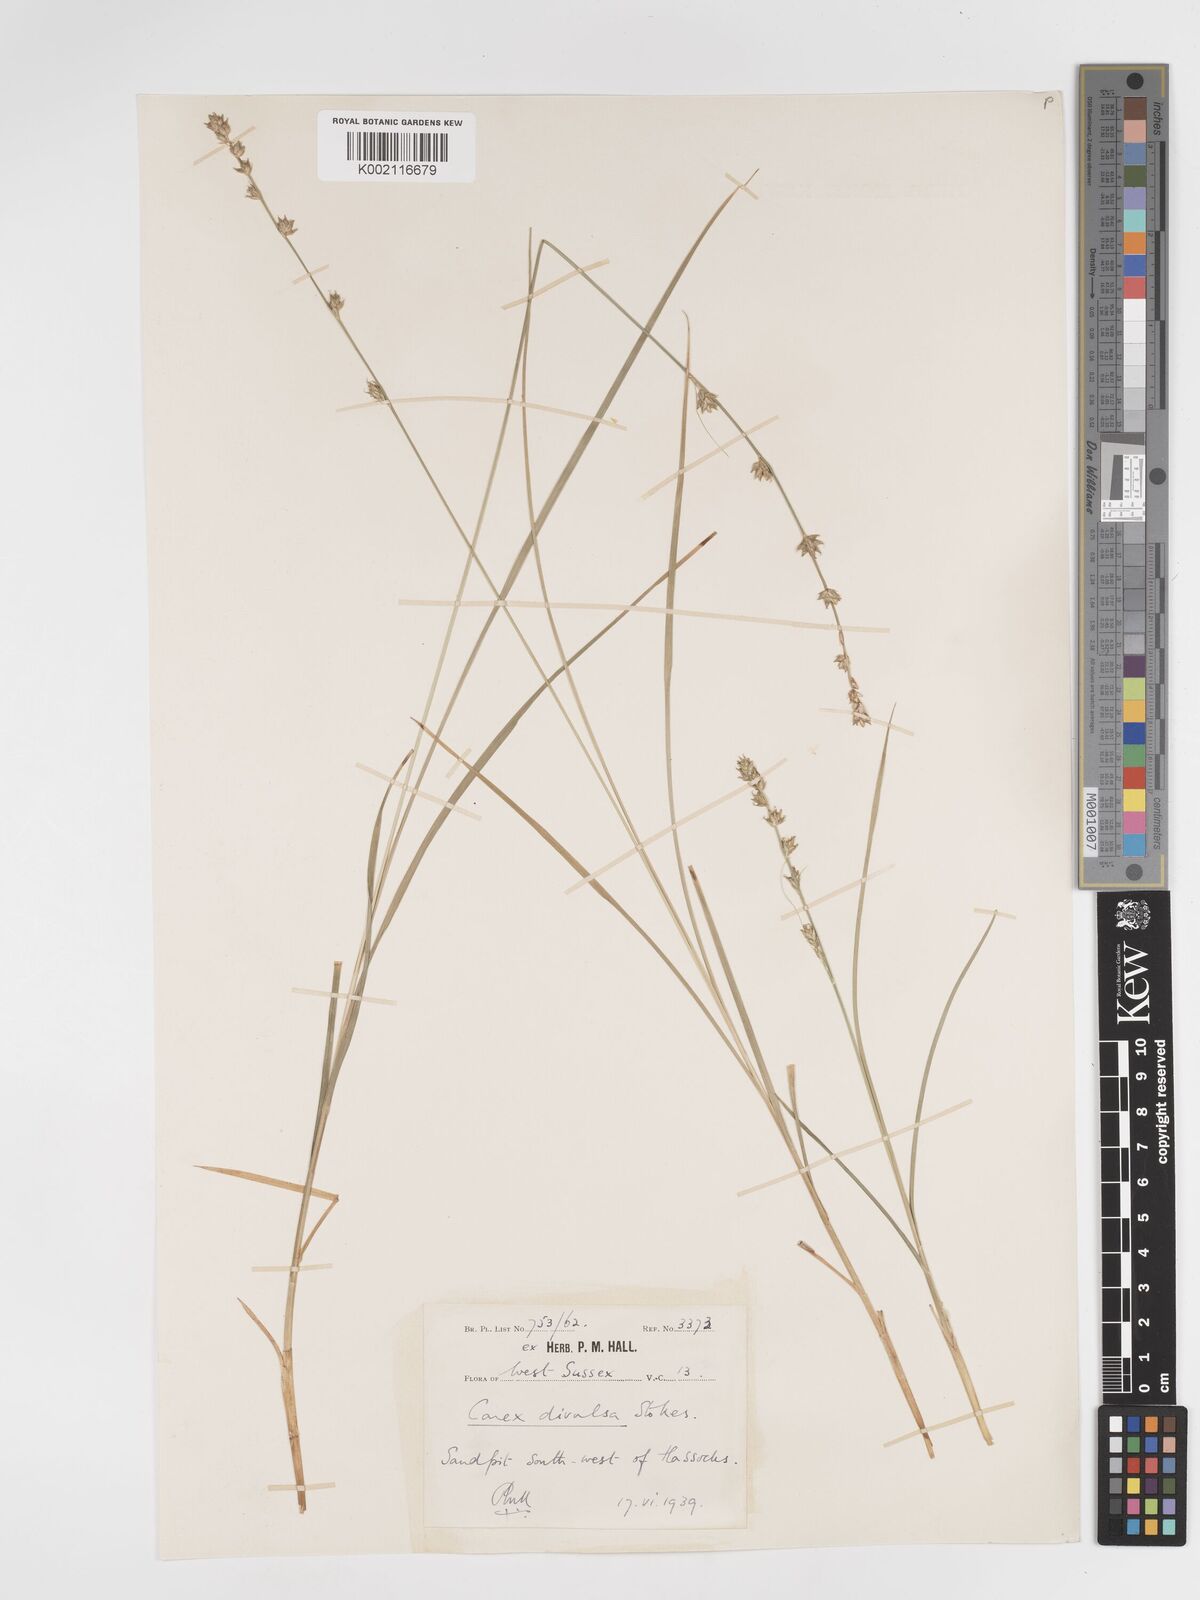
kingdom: Plantae
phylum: Tracheophyta
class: Liliopsida
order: Poales
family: Cyperaceae
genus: Carex
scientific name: Carex divulsa
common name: Grassland sedge
